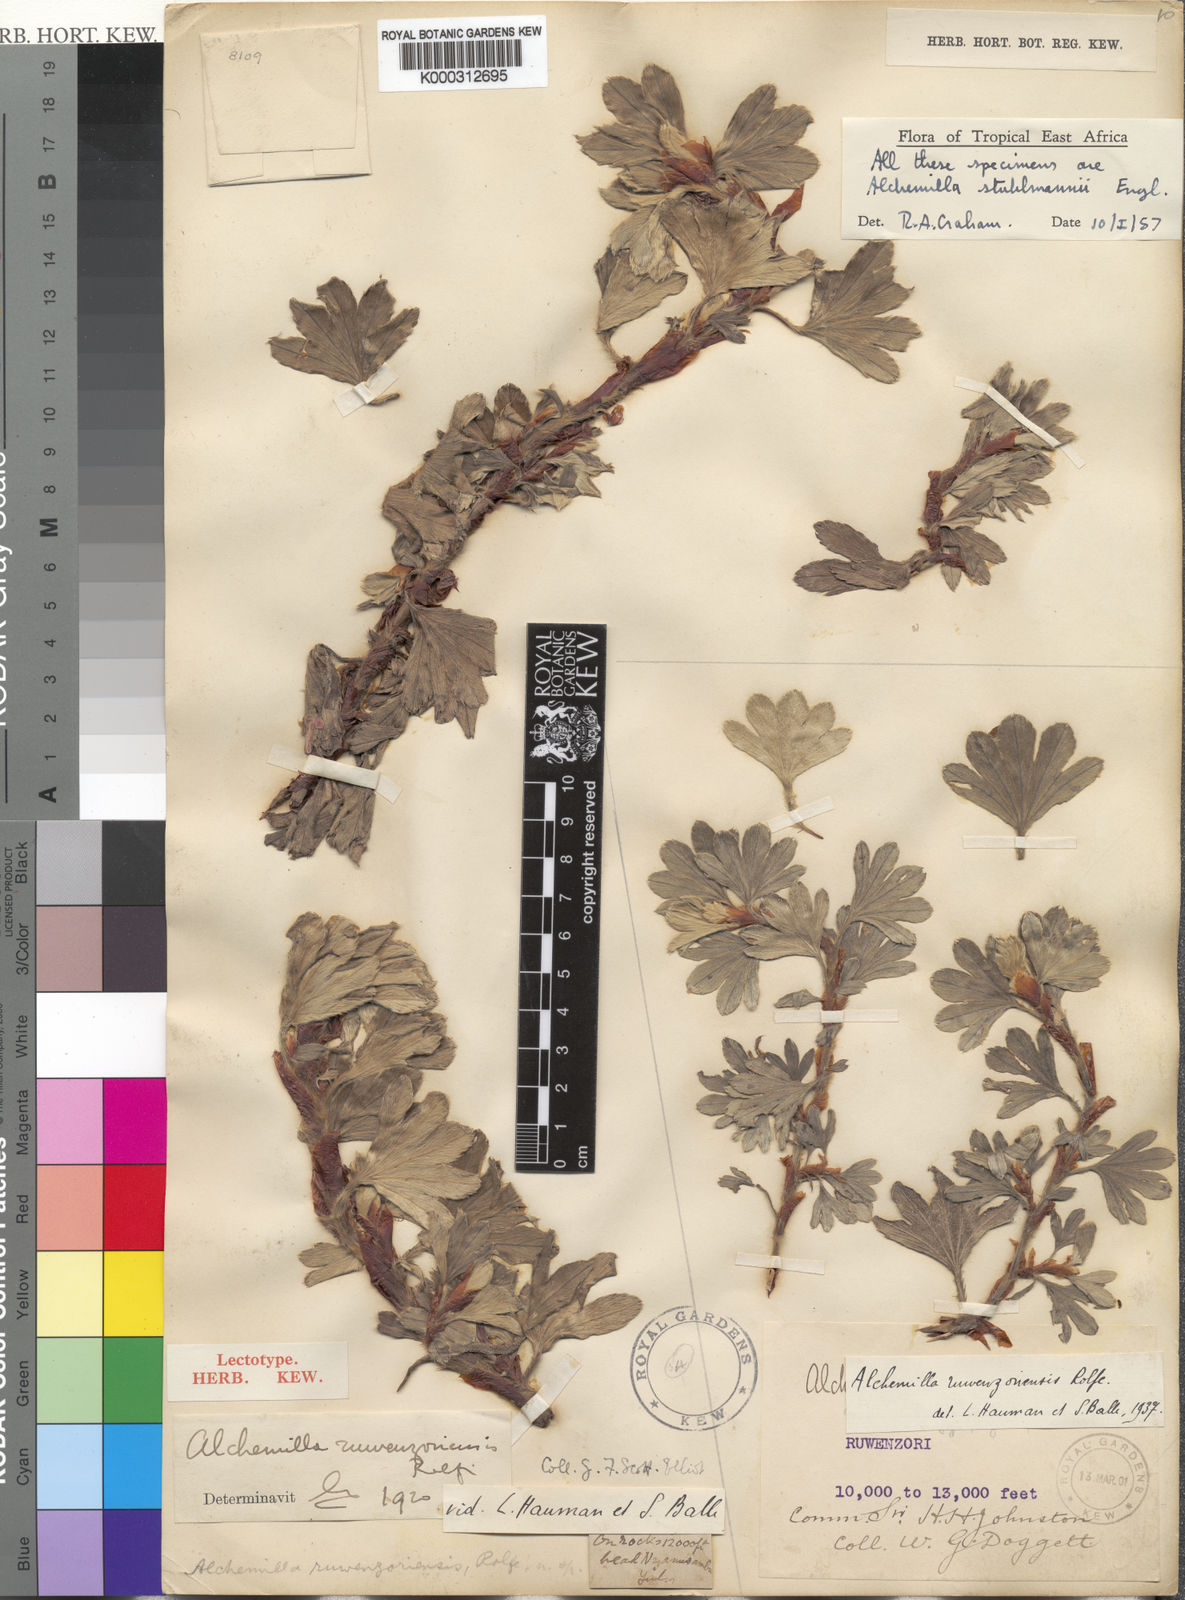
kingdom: Plantae
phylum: Tracheophyta
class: Magnoliopsida
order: Rosales
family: Rosaceae
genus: Alchemilla
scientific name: Alchemilla stuhlmannii
